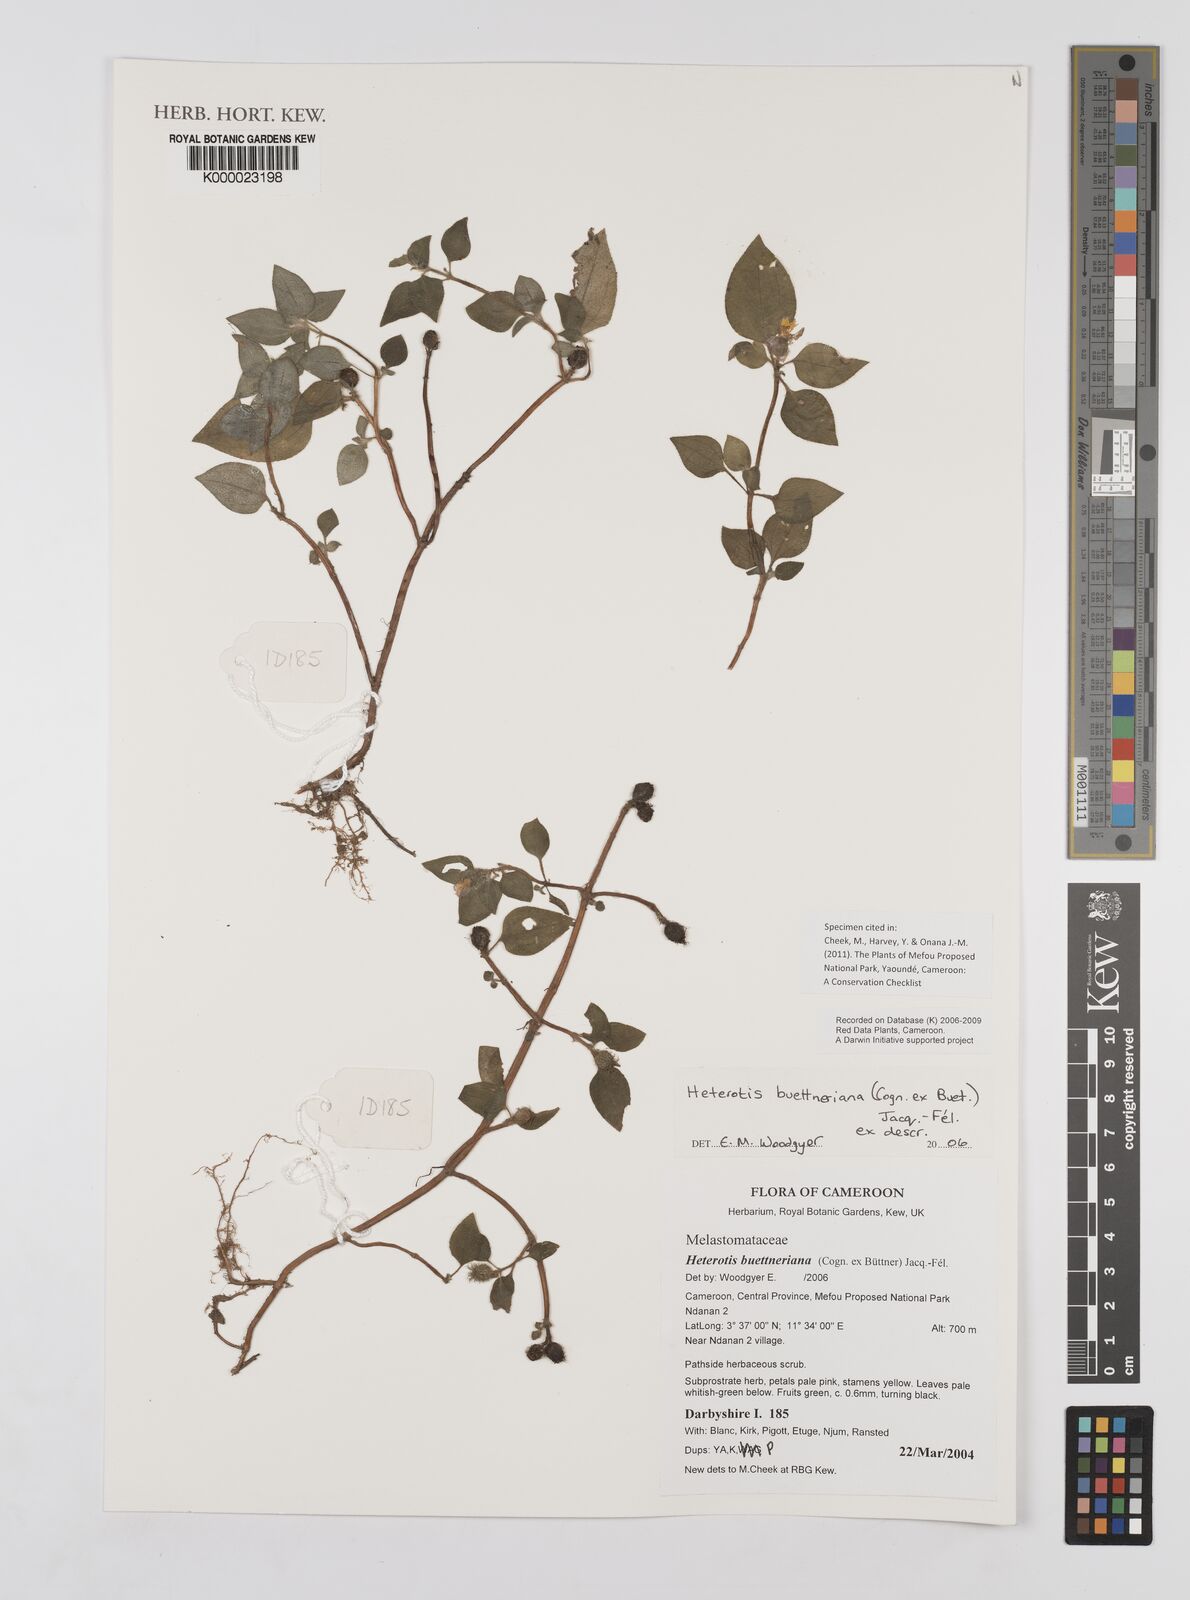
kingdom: Plantae
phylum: Tracheophyta
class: Magnoliopsida
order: Myrtales
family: Melastomataceae
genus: Heterotis
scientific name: Heterotis
